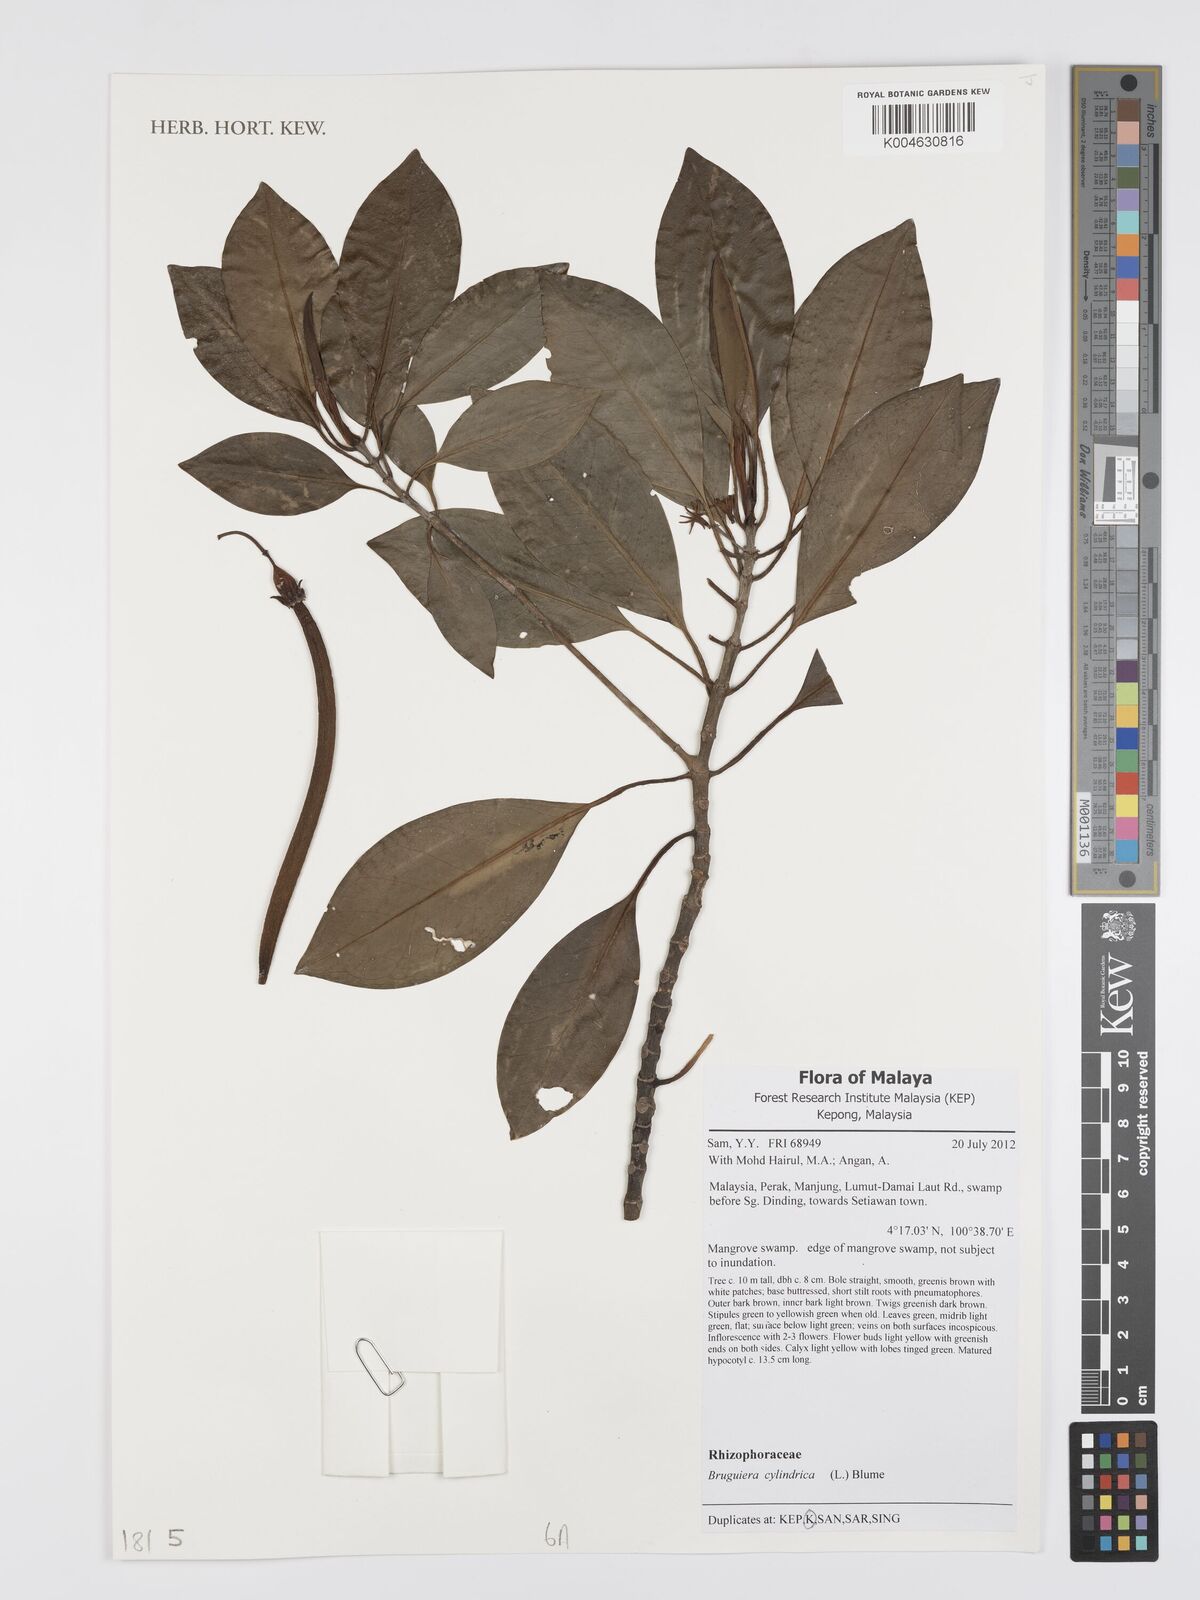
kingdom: Plantae
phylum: Tracheophyta
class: Magnoliopsida
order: Malpighiales
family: Rhizophoraceae
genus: Bruguiera
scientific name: Bruguiera cylindrica
